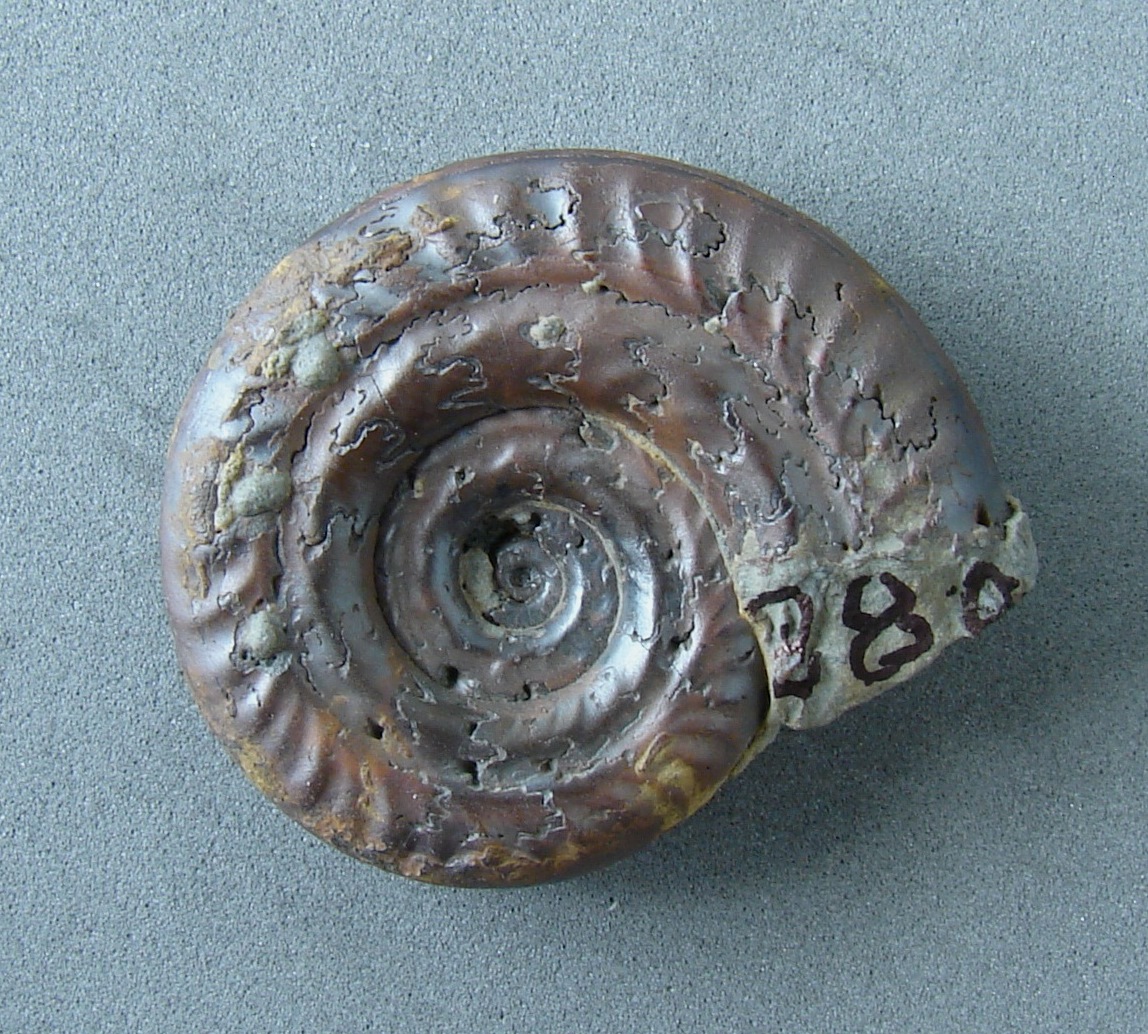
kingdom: Animalia
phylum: Mollusca
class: Cephalopoda
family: Hildoceratidae
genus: Hildoceras
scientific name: Hildoceras apertum
